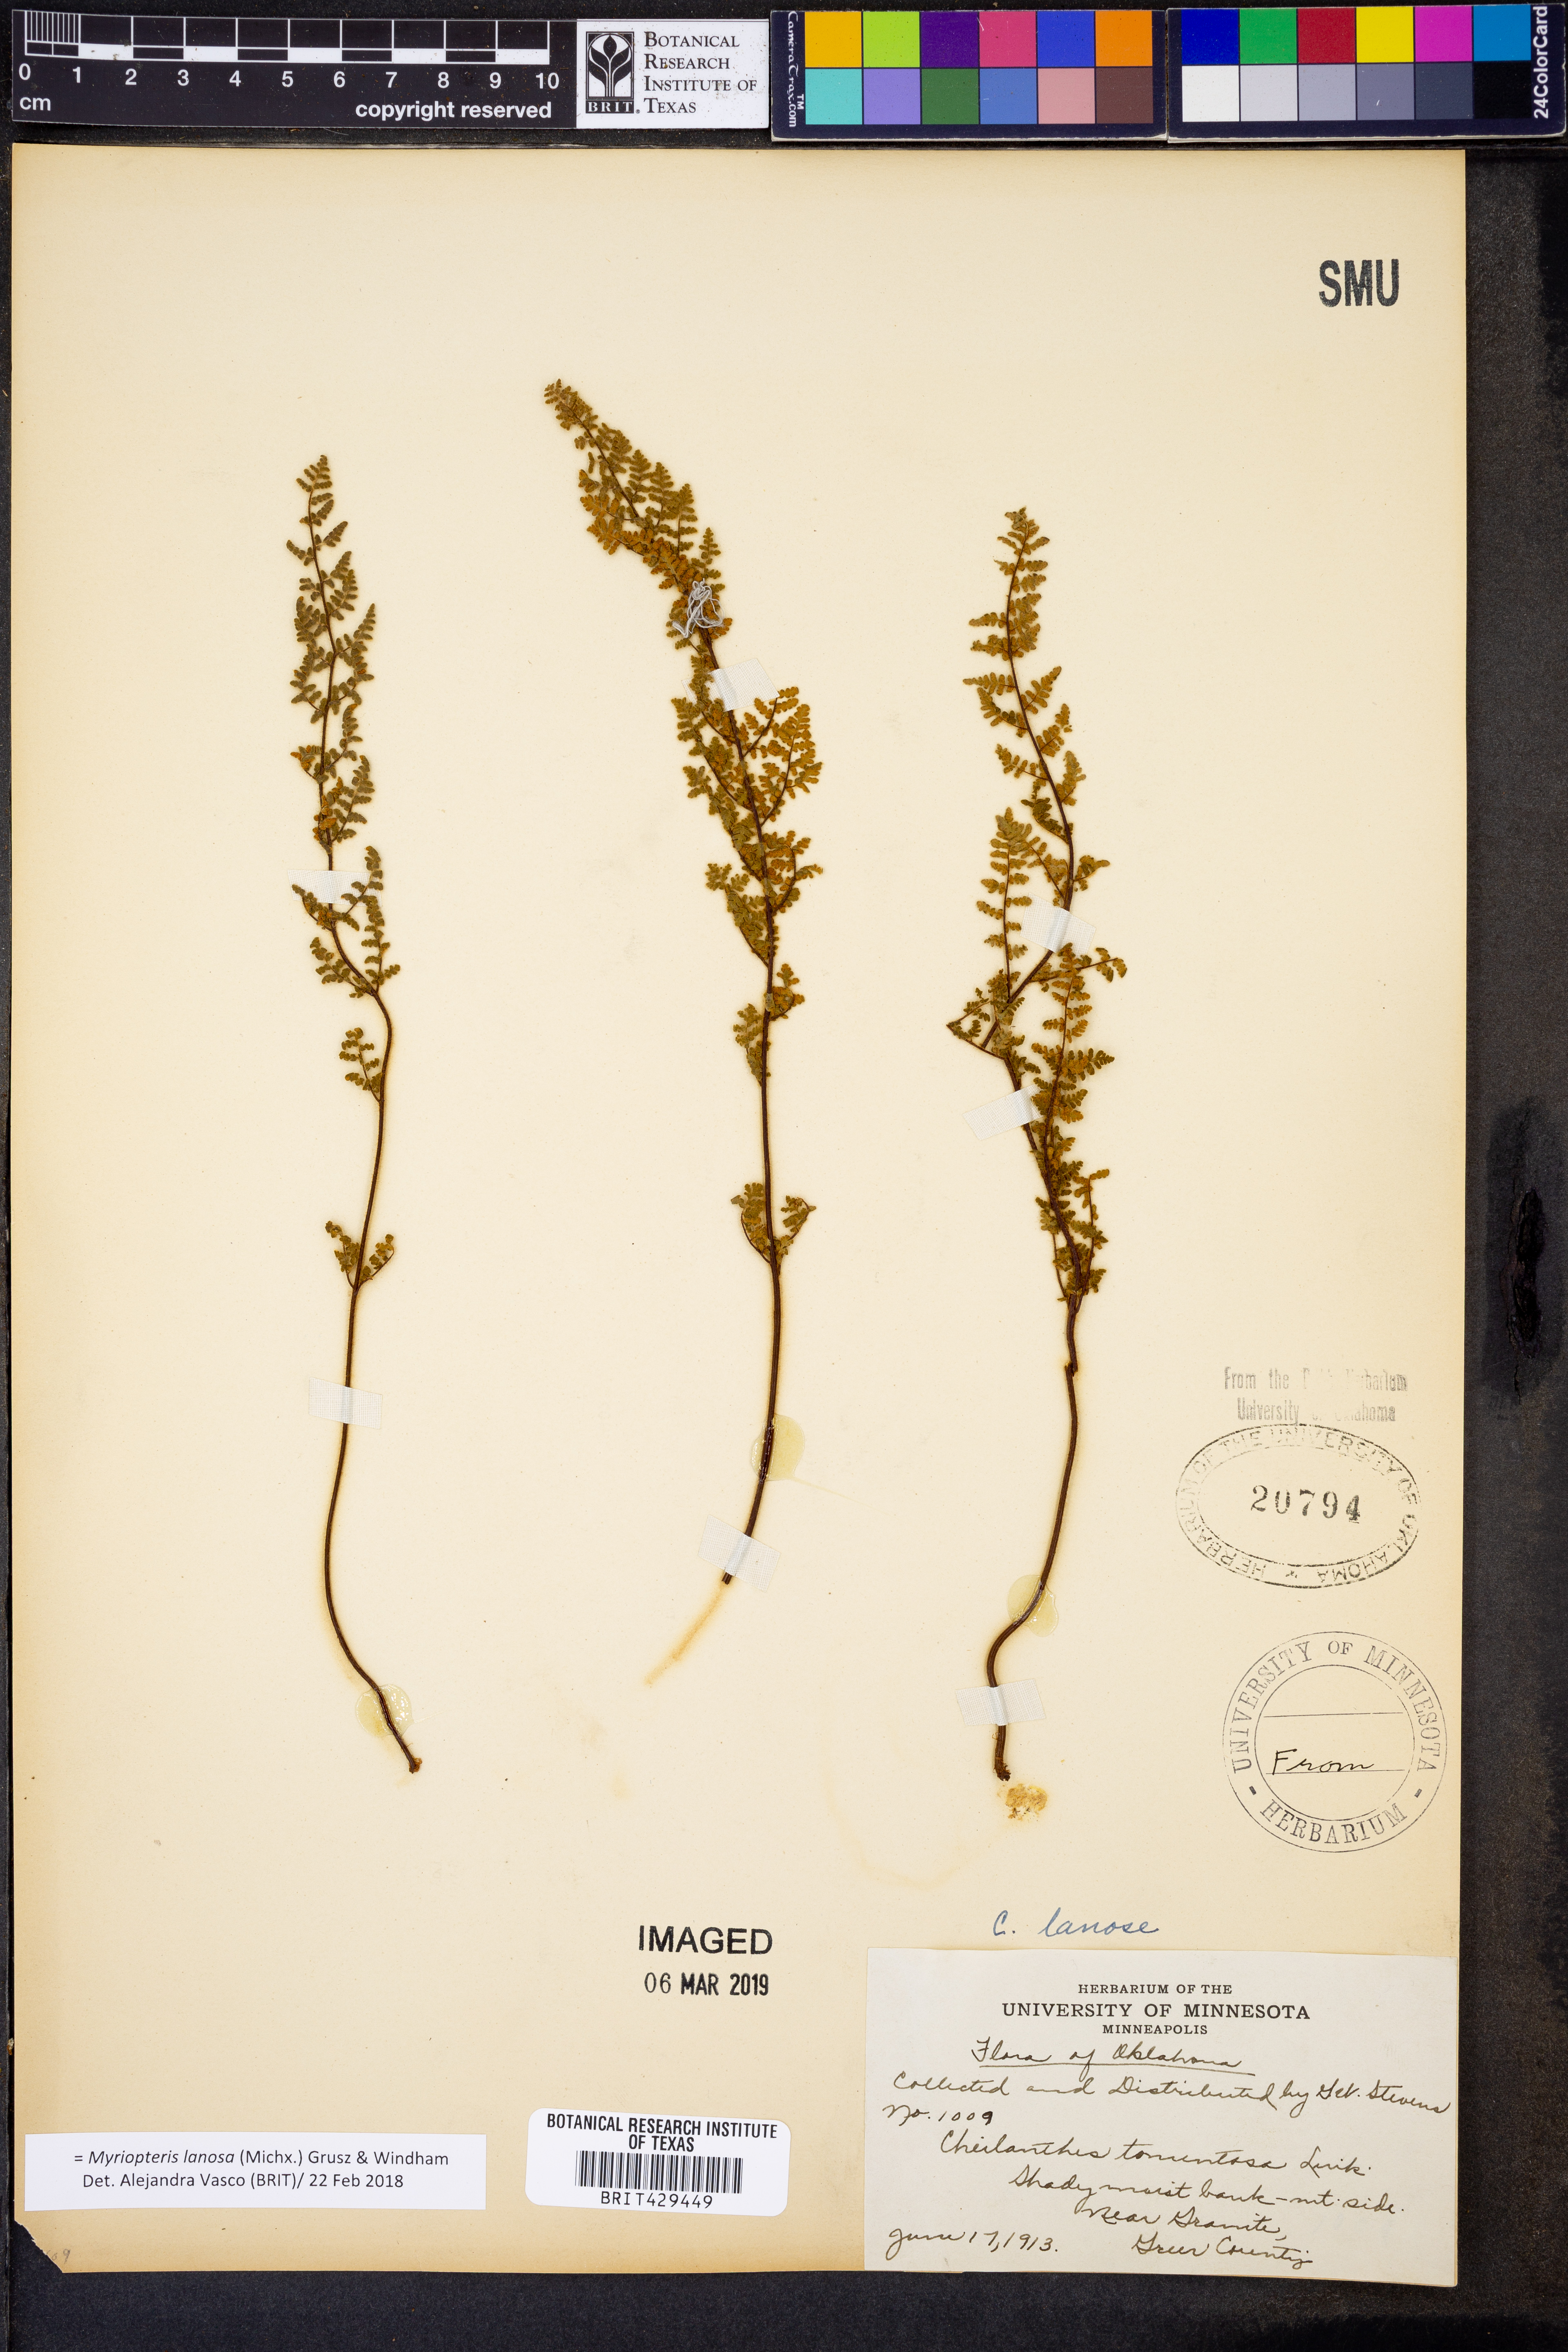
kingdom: Plantae
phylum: Tracheophyta
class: Polypodiopsida
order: Polypodiales
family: Pteridaceae
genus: Myriopteris
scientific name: Myriopteris lanosa
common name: Hairy lip fern
